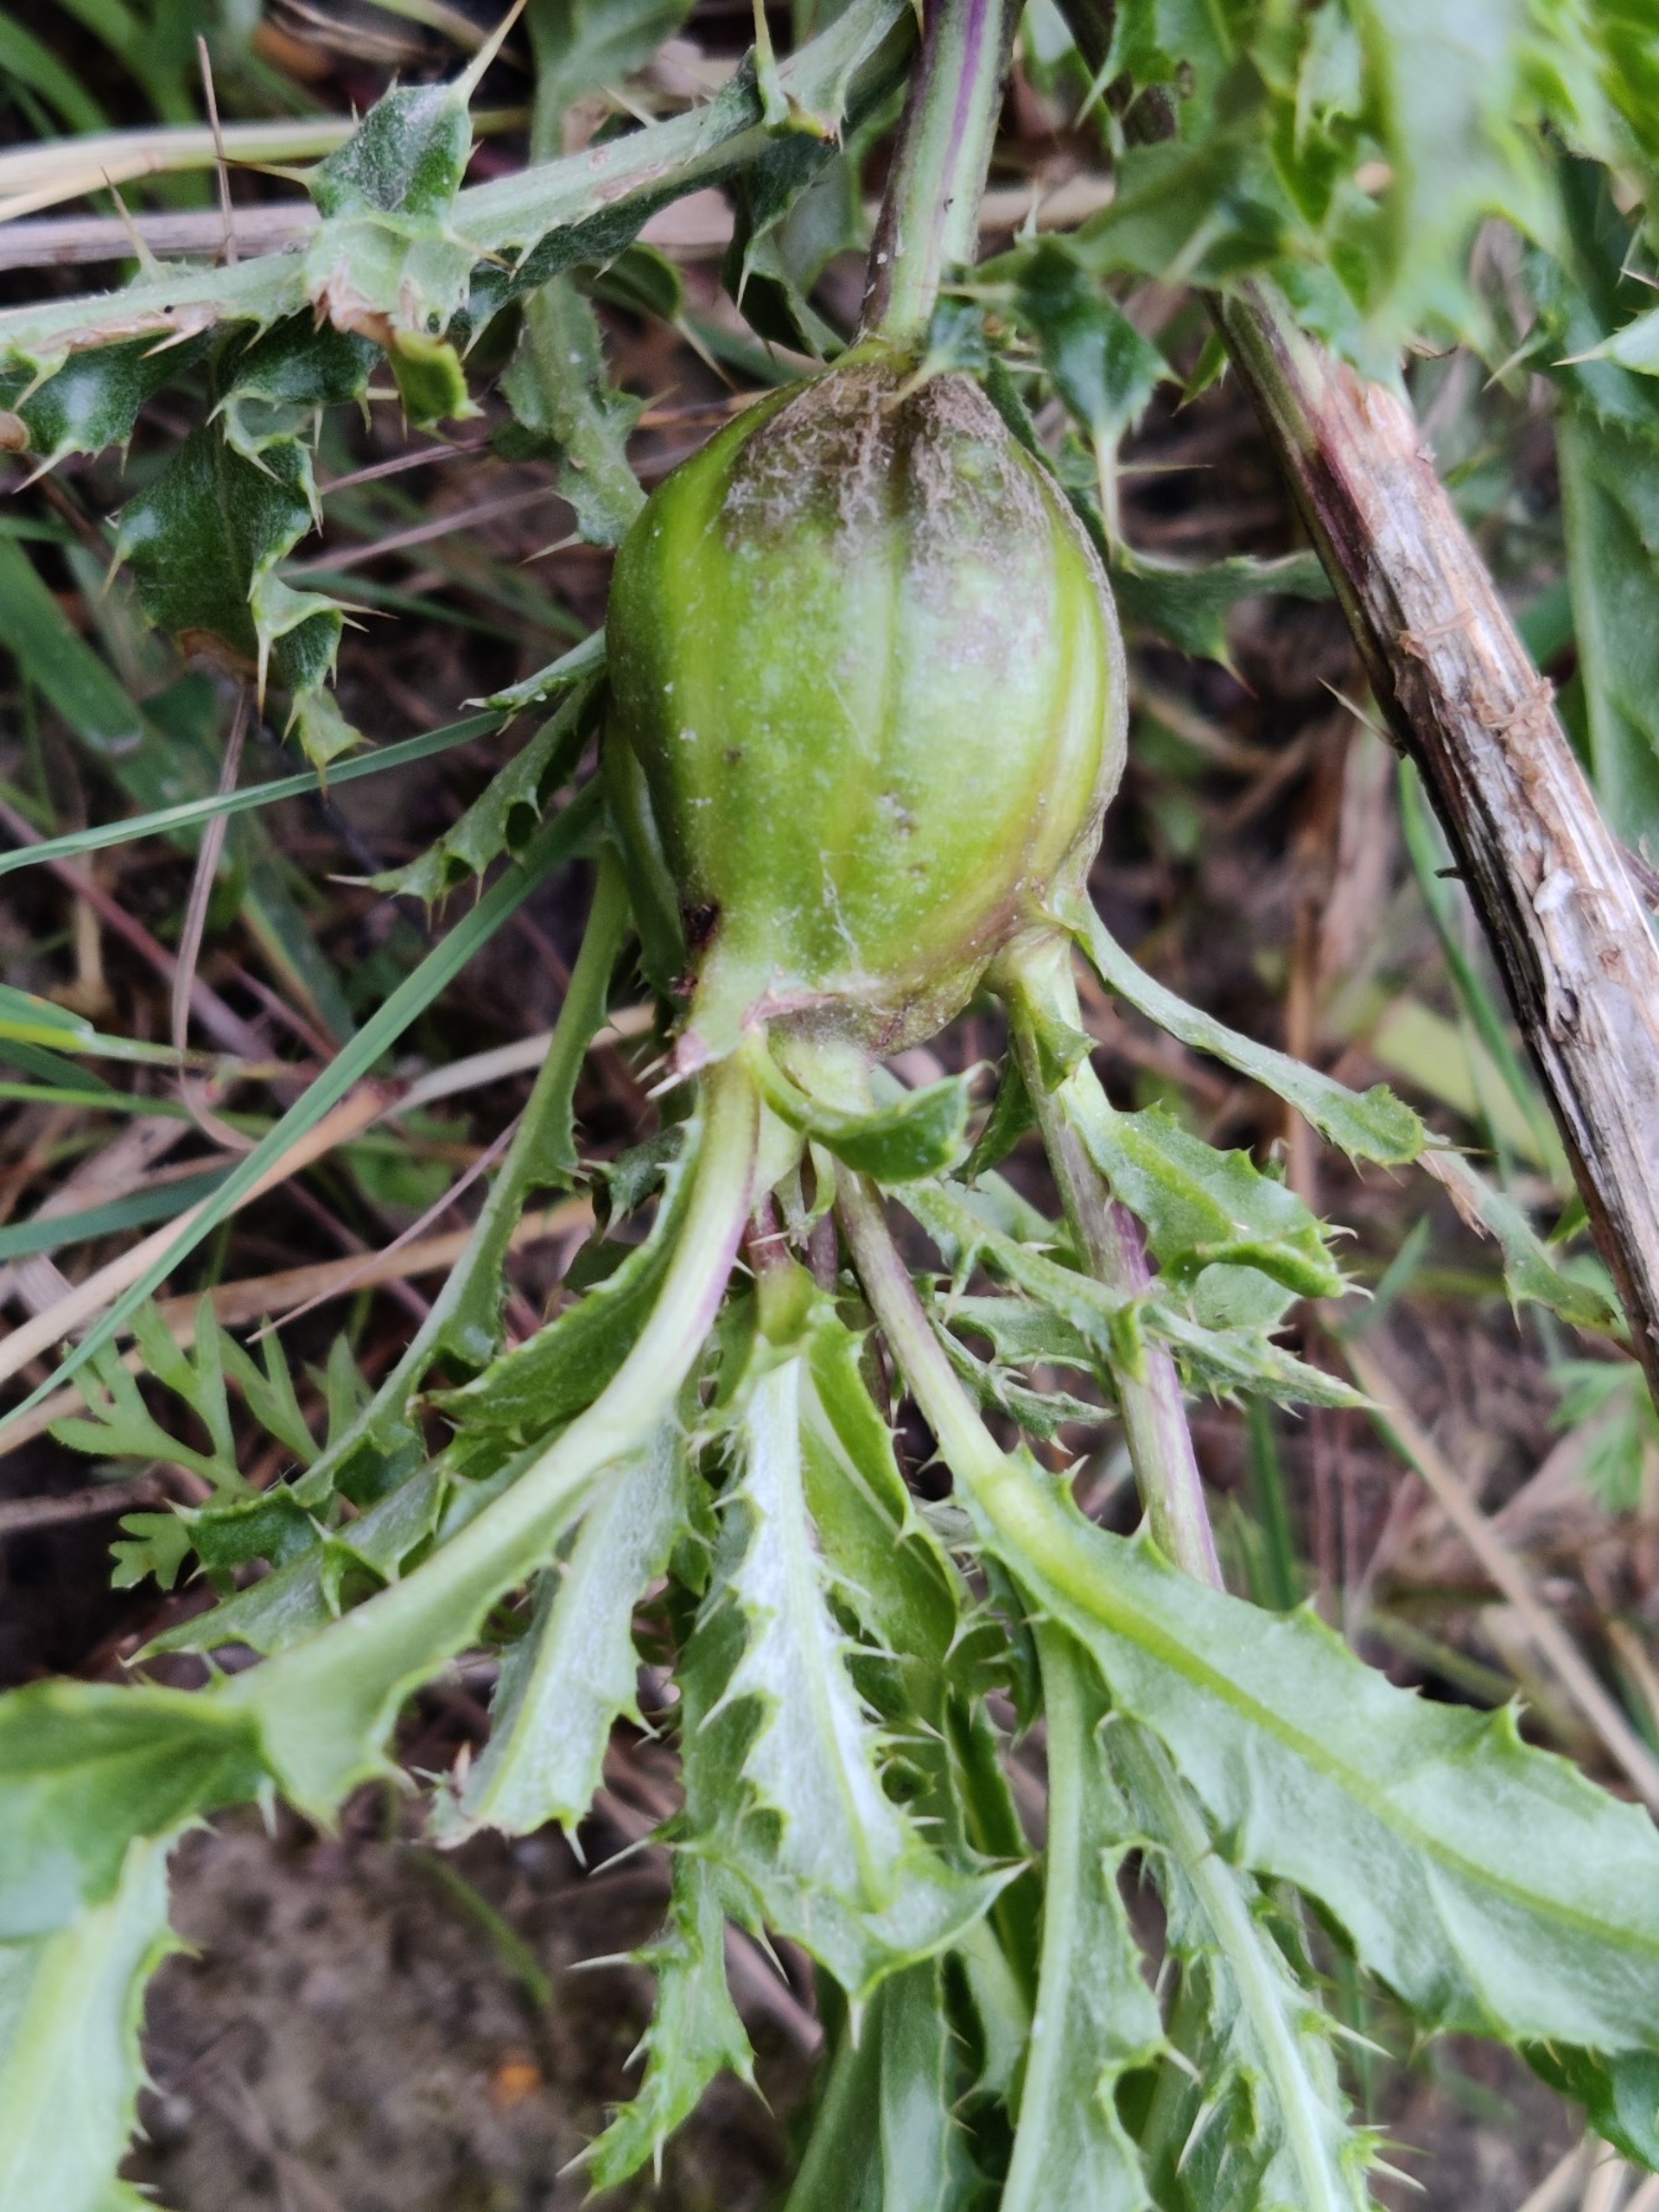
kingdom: Animalia
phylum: Arthropoda
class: Insecta
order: Diptera
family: Tephritidae
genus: Urophora
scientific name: Urophora cardui
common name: Tidselbåndflue
